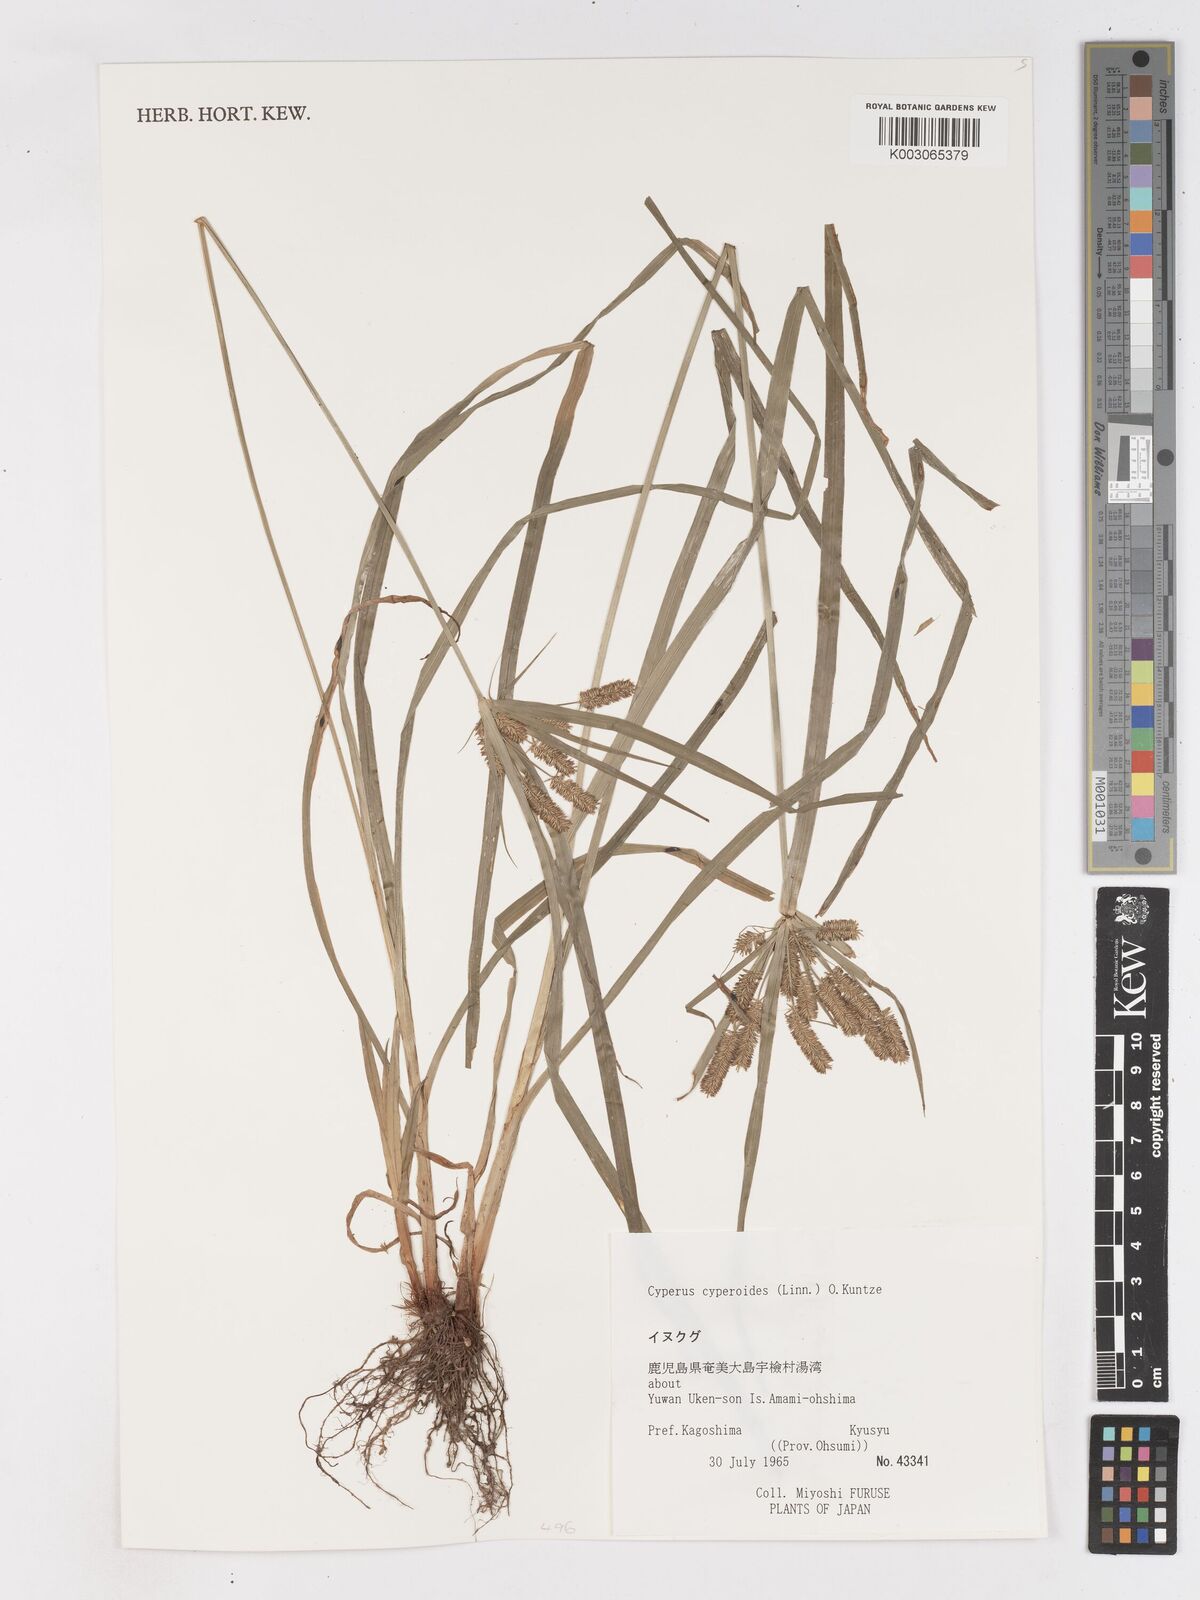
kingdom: Plantae
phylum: Tracheophyta
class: Liliopsida
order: Poales
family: Cyperaceae
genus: Cyperus
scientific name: Cyperus cyperoides
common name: Pacific island flat sedge
